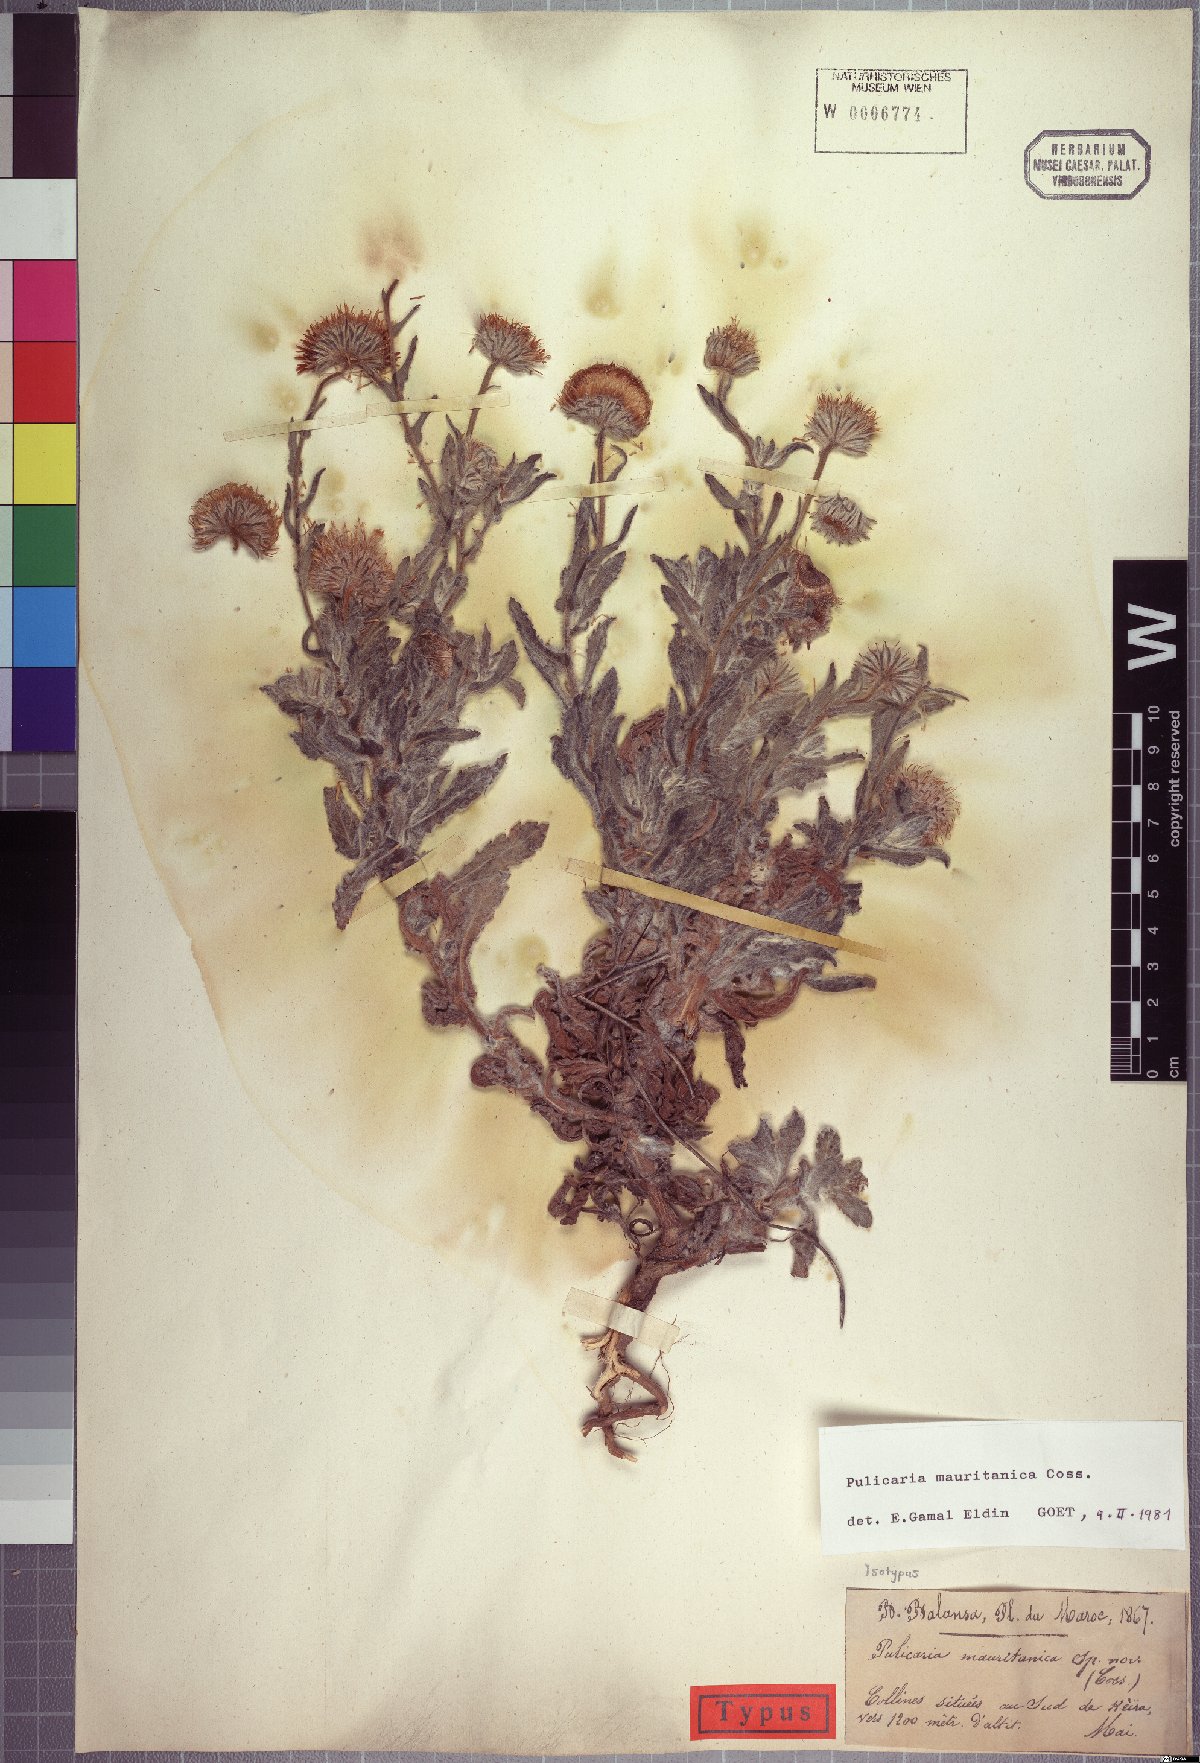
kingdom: Plantae
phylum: Tracheophyta
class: Magnoliopsida
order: Asterales
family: Asteraceae
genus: Pulicaria
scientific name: Pulicaria mauritanica
